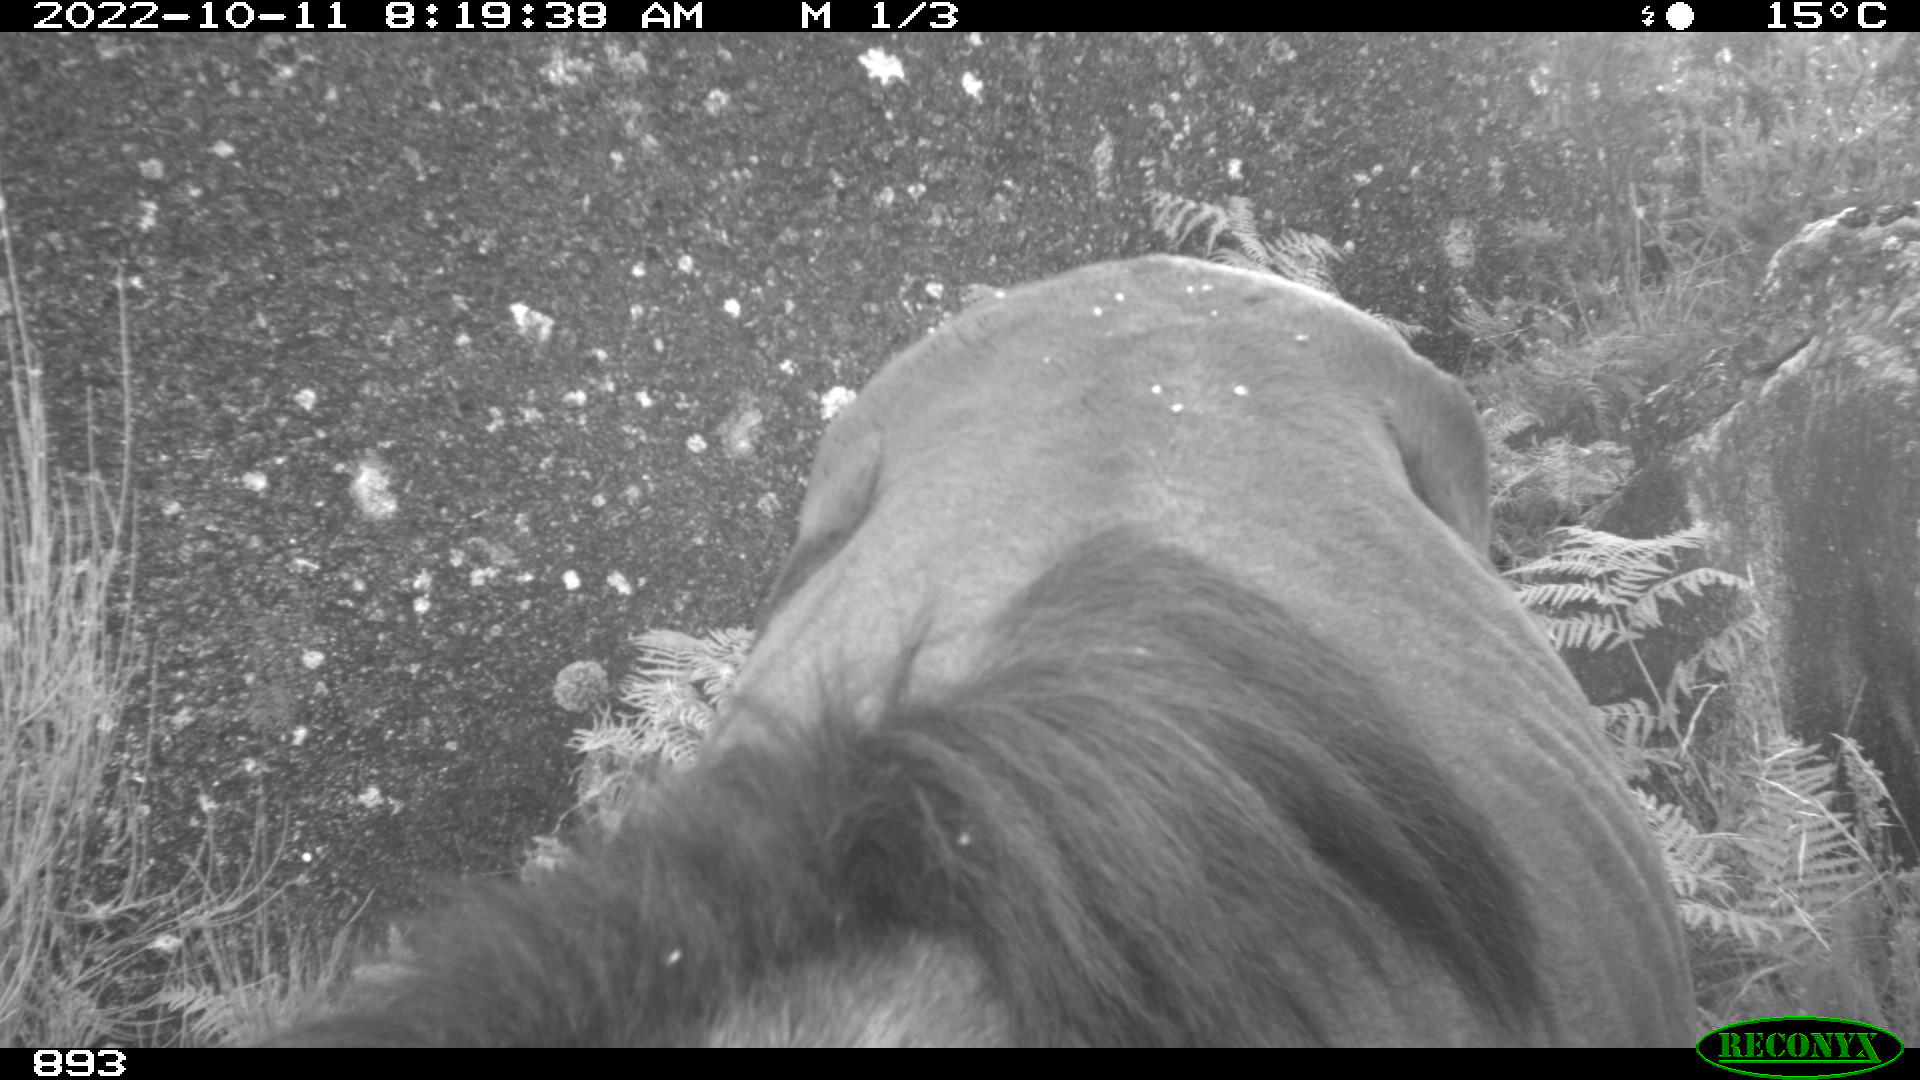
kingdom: Animalia
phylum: Chordata
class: Mammalia
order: Perissodactyla
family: Equidae
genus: Equus
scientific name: Equus caballus
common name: Horse
